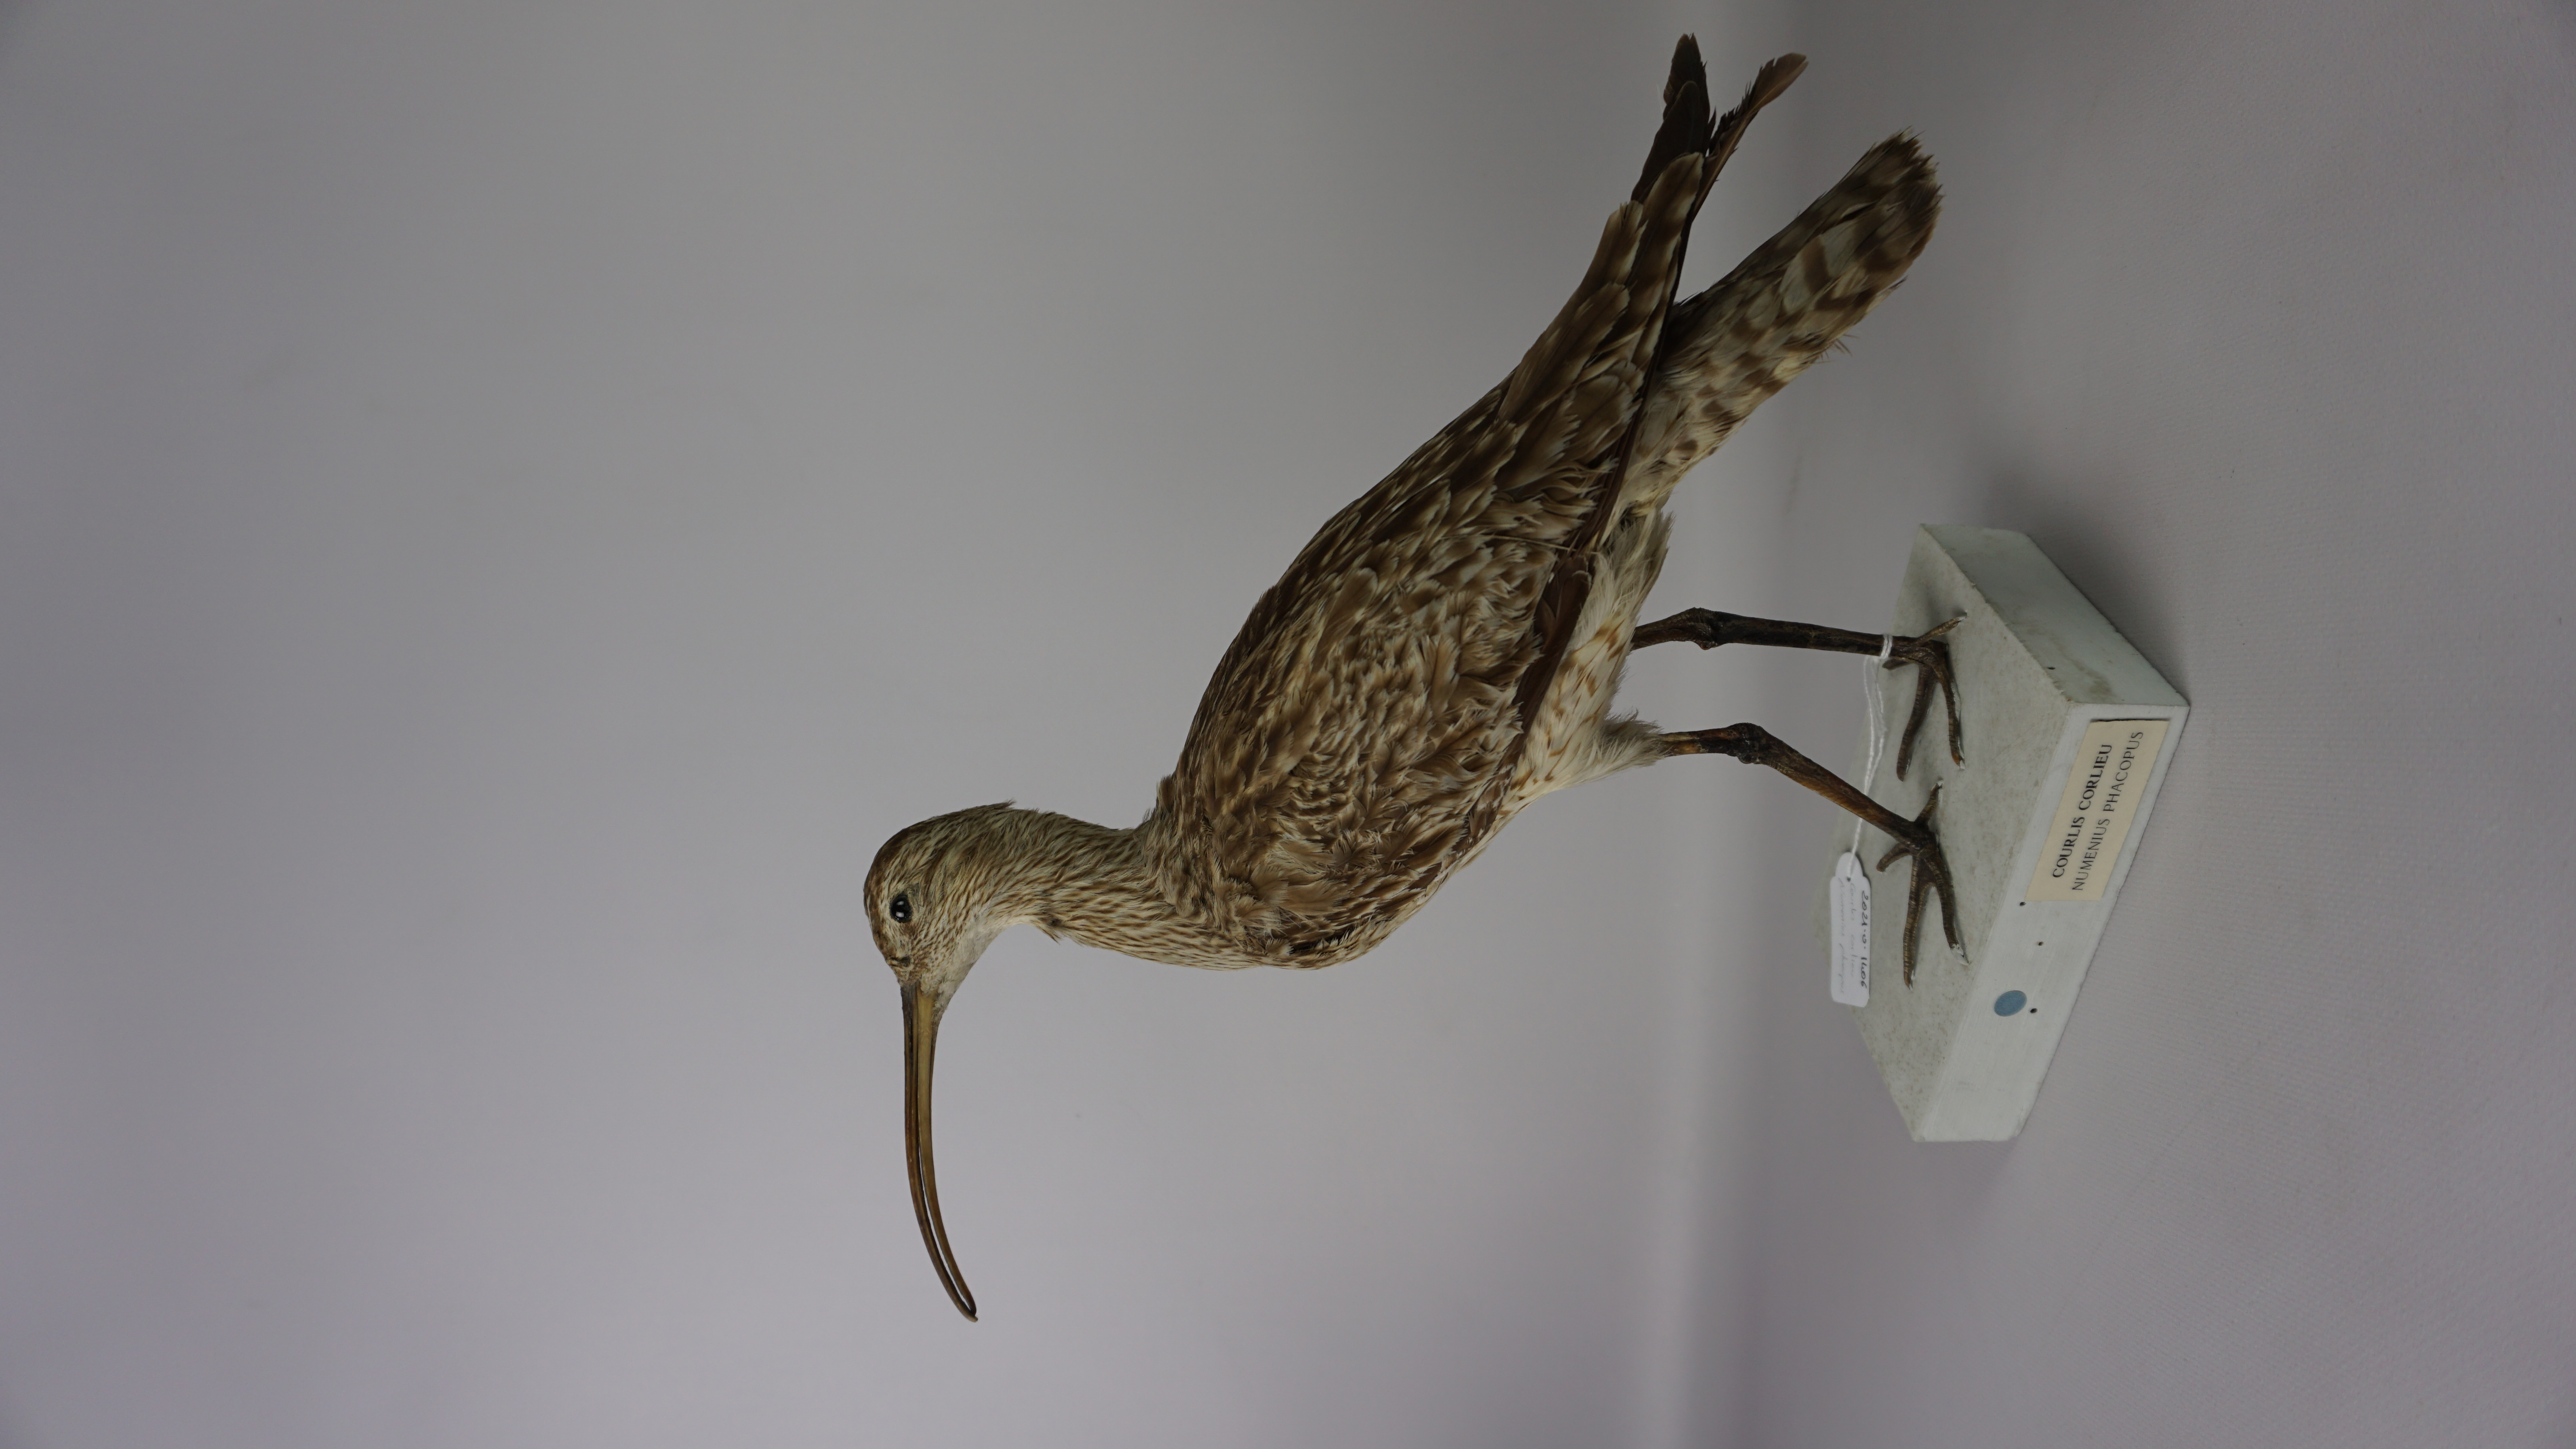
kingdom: Animalia
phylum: Chordata
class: Aves
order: Charadriiformes
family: Scolopacidae
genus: Numenius
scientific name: Numenius phaeopus
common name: Whimbrel
